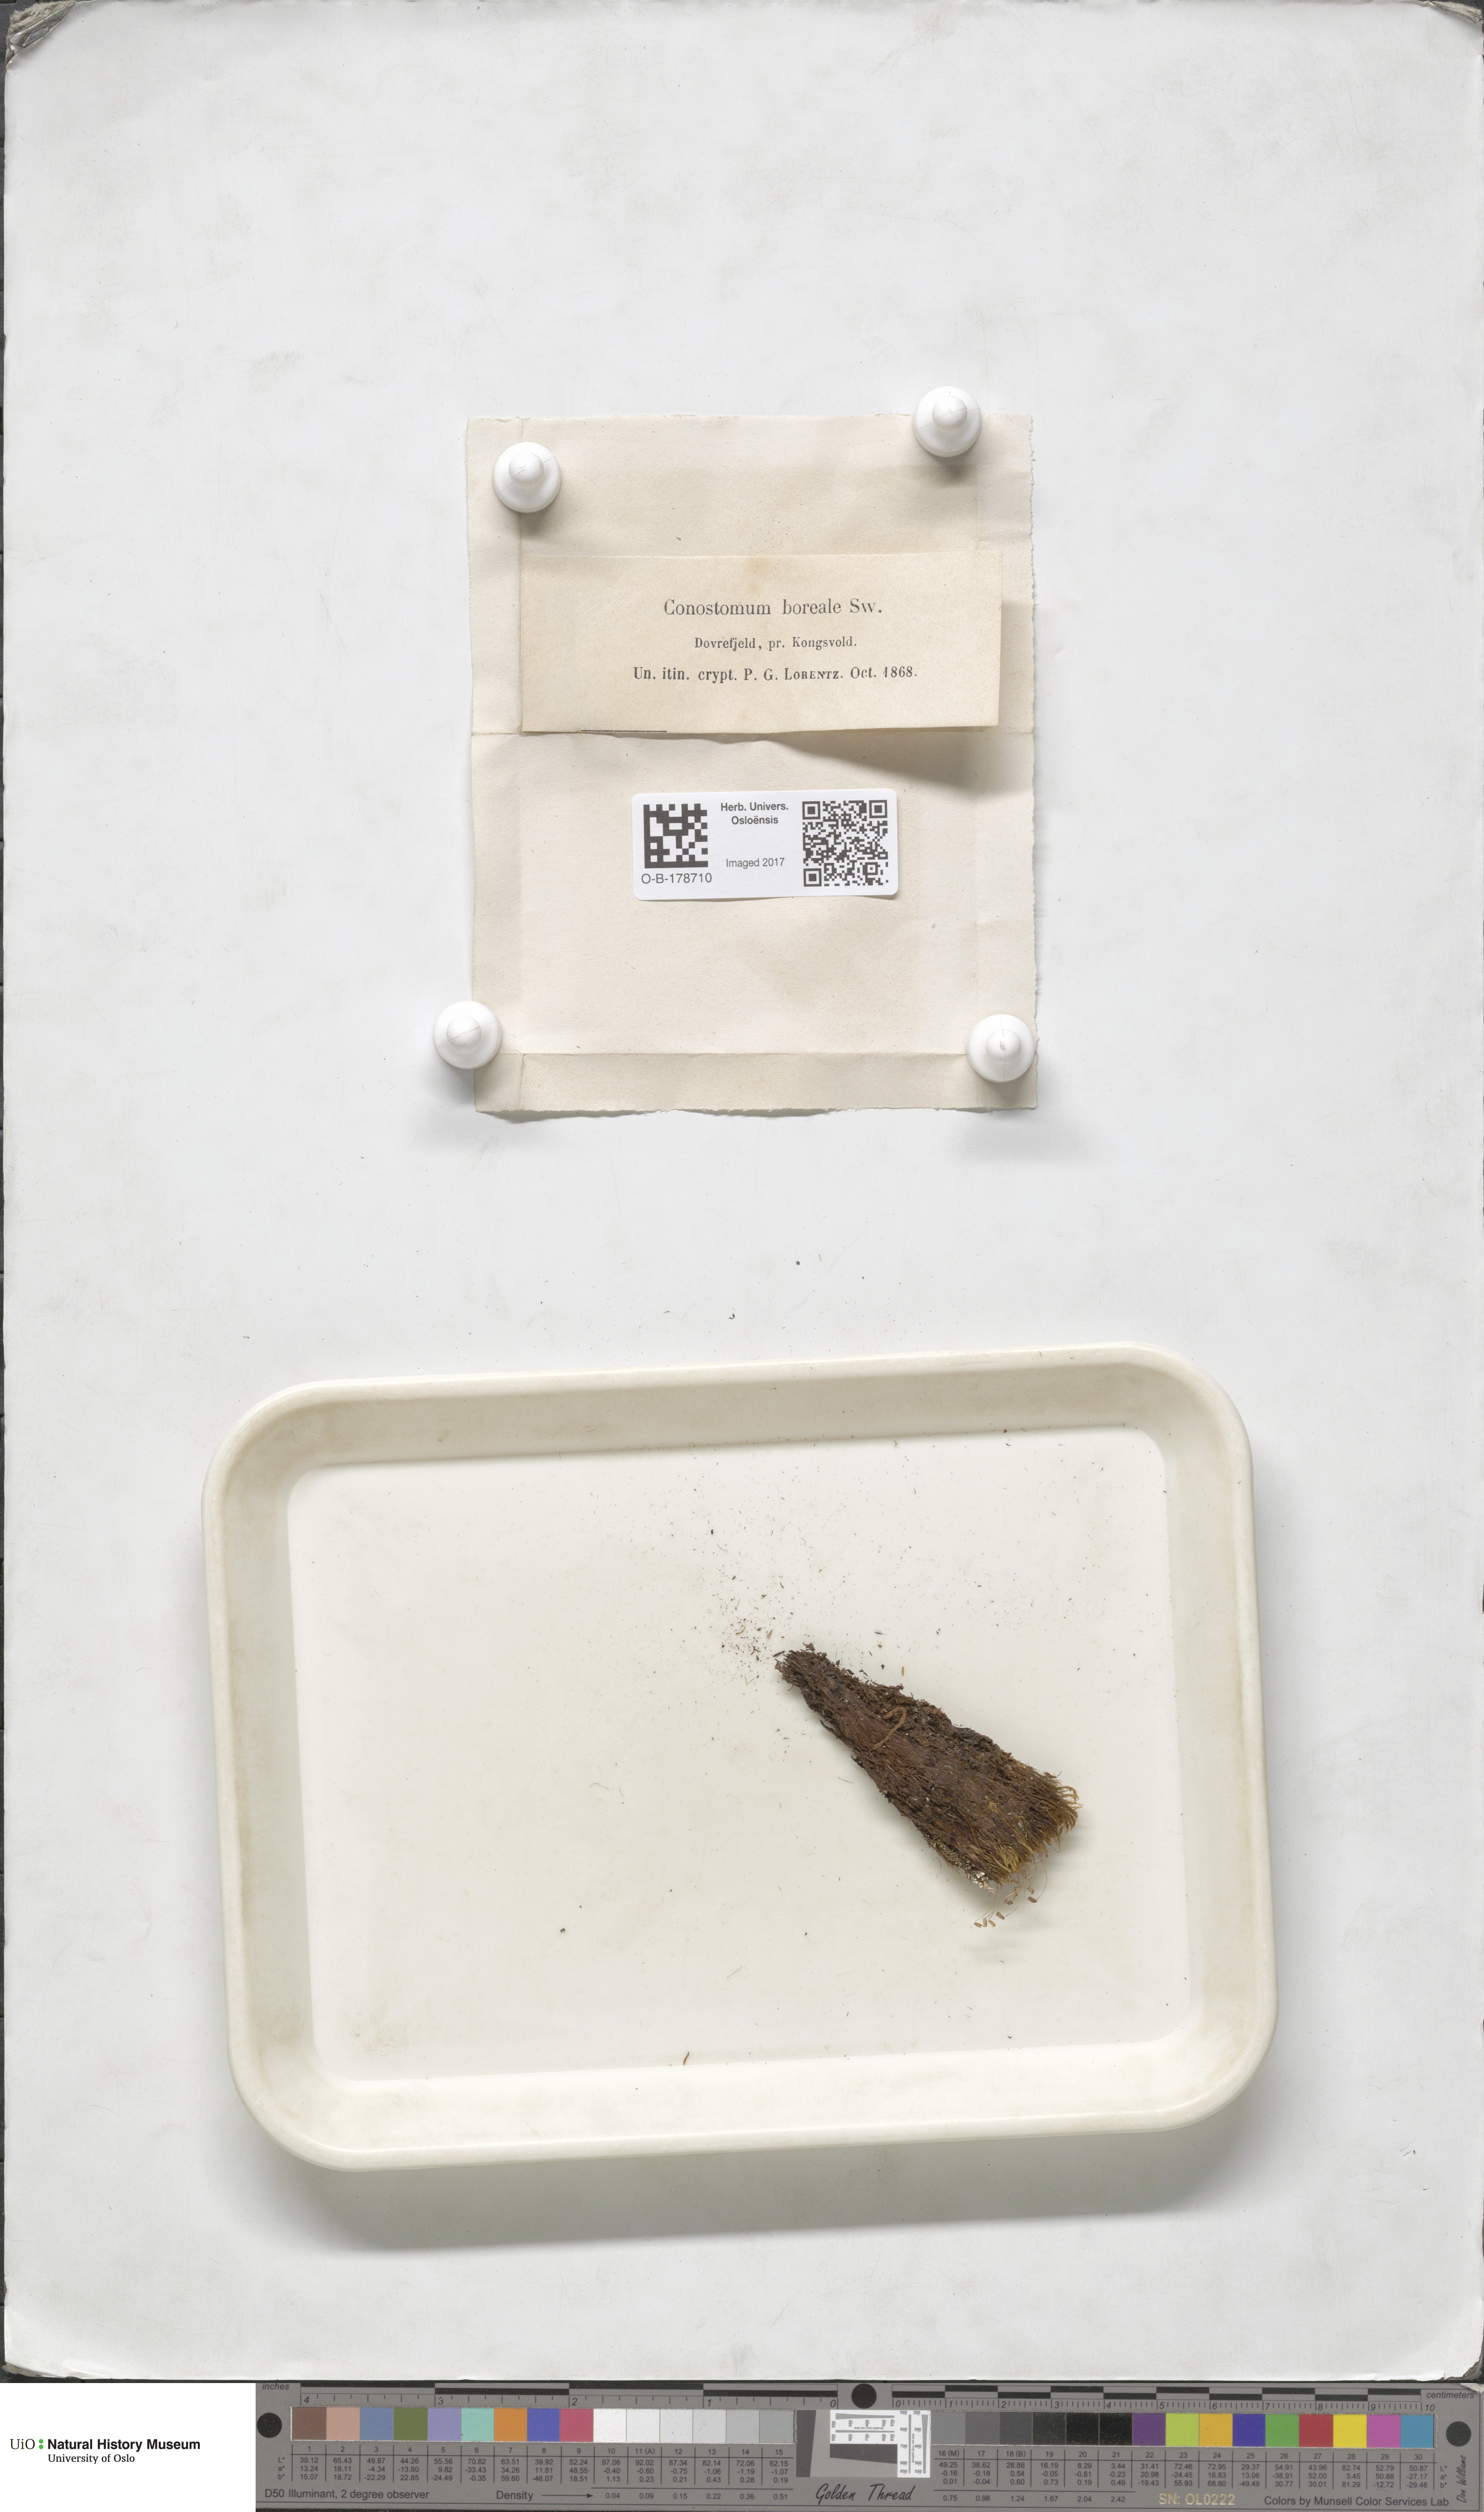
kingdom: Plantae
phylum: Bryophyta
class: Bryopsida
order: Bartramiales
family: Bartramiaceae
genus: Conostomum
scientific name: Conostomum tetragonum
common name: Helmet moss
